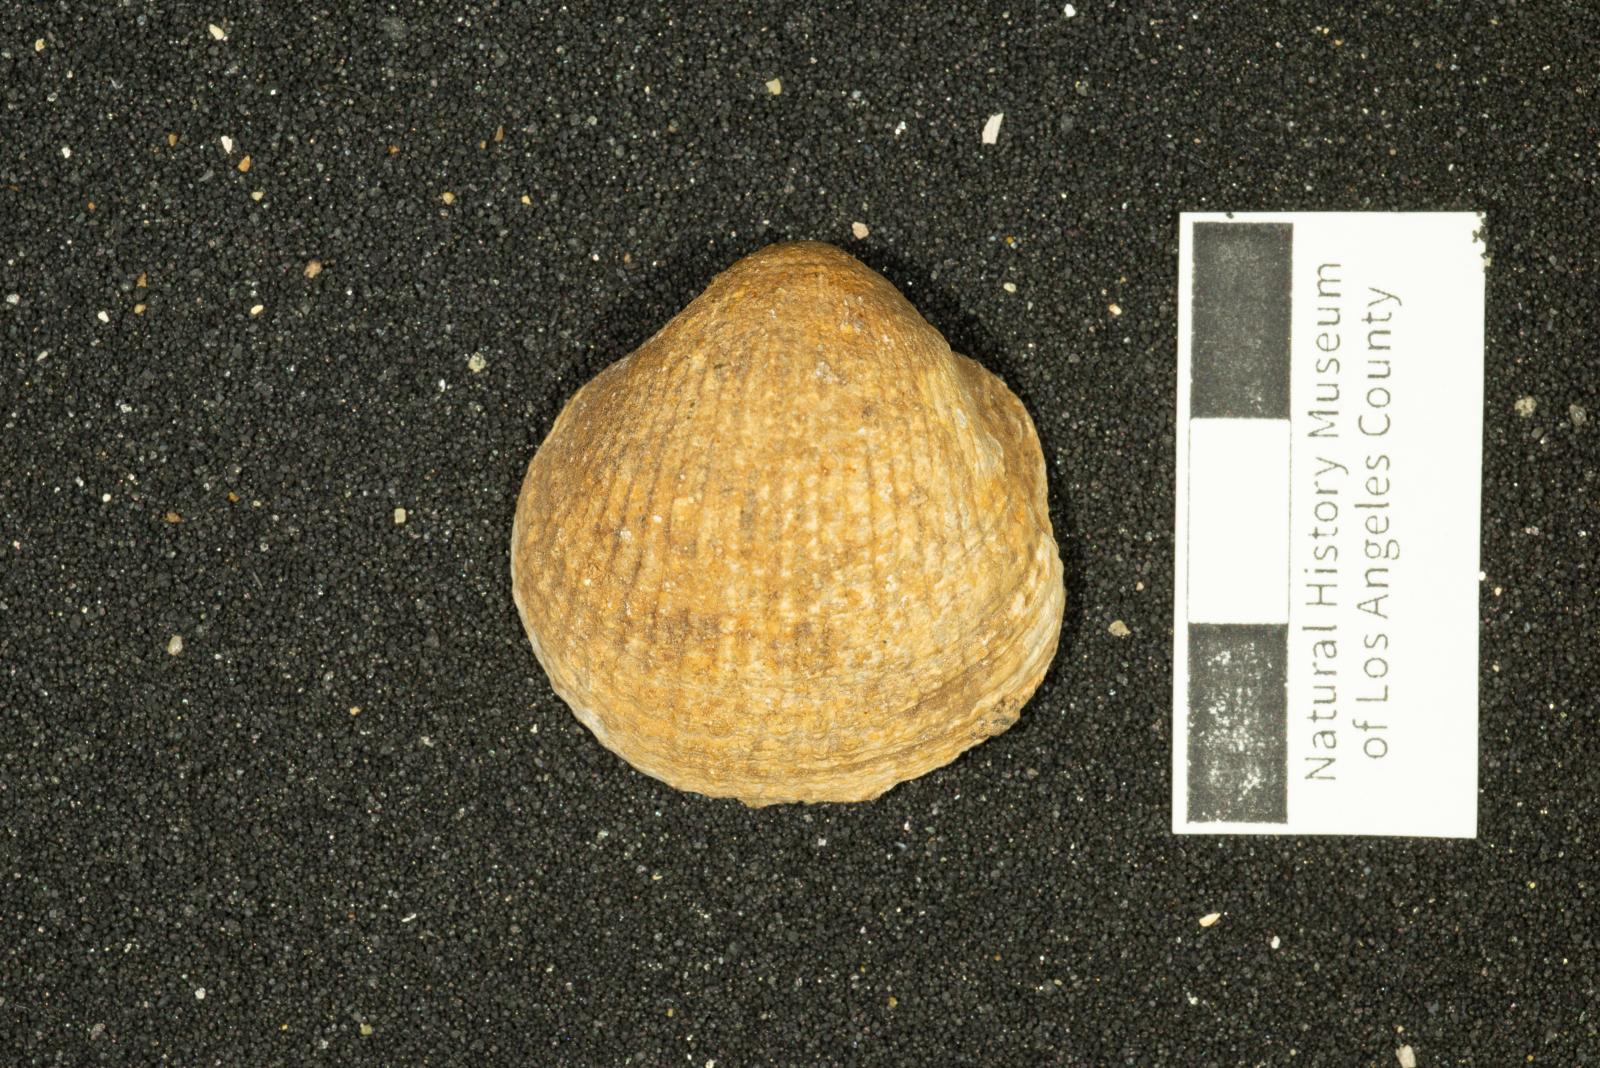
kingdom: Animalia
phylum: Mollusca
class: Bivalvia
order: Arcida
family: Glycymerididae
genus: Glycymerita
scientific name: Glycymerita Axinaea veatchii
